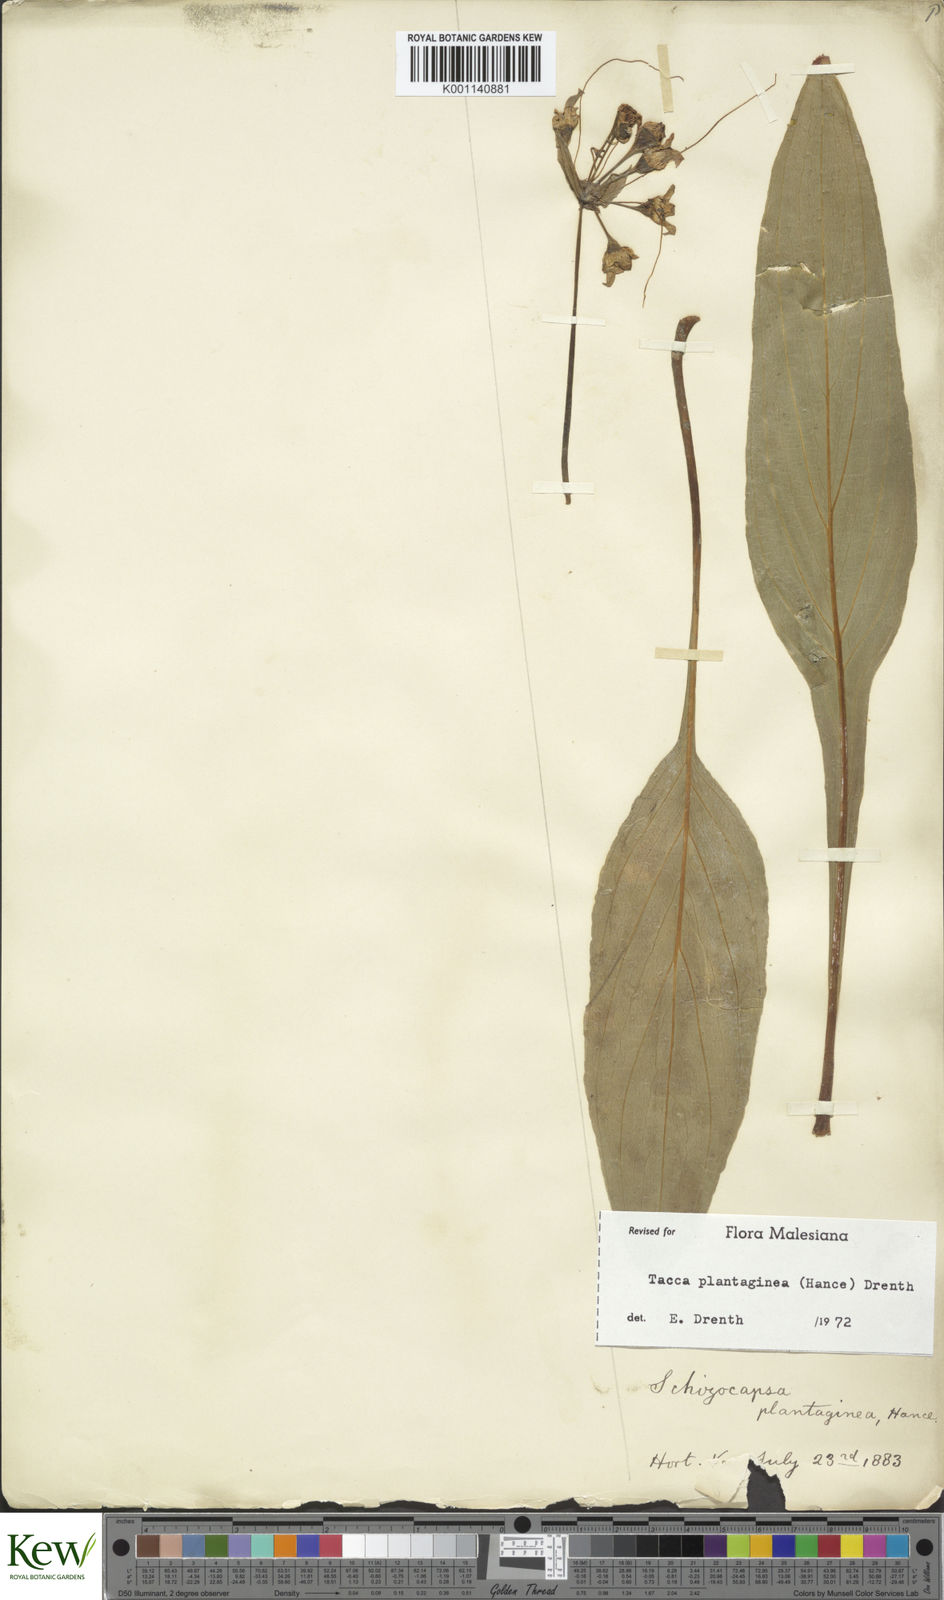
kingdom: Plantae
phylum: Tracheophyta
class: Liliopsida
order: Dioscoreales
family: Dioscoreaceae
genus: Tacca
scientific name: Tacca plantaginea
